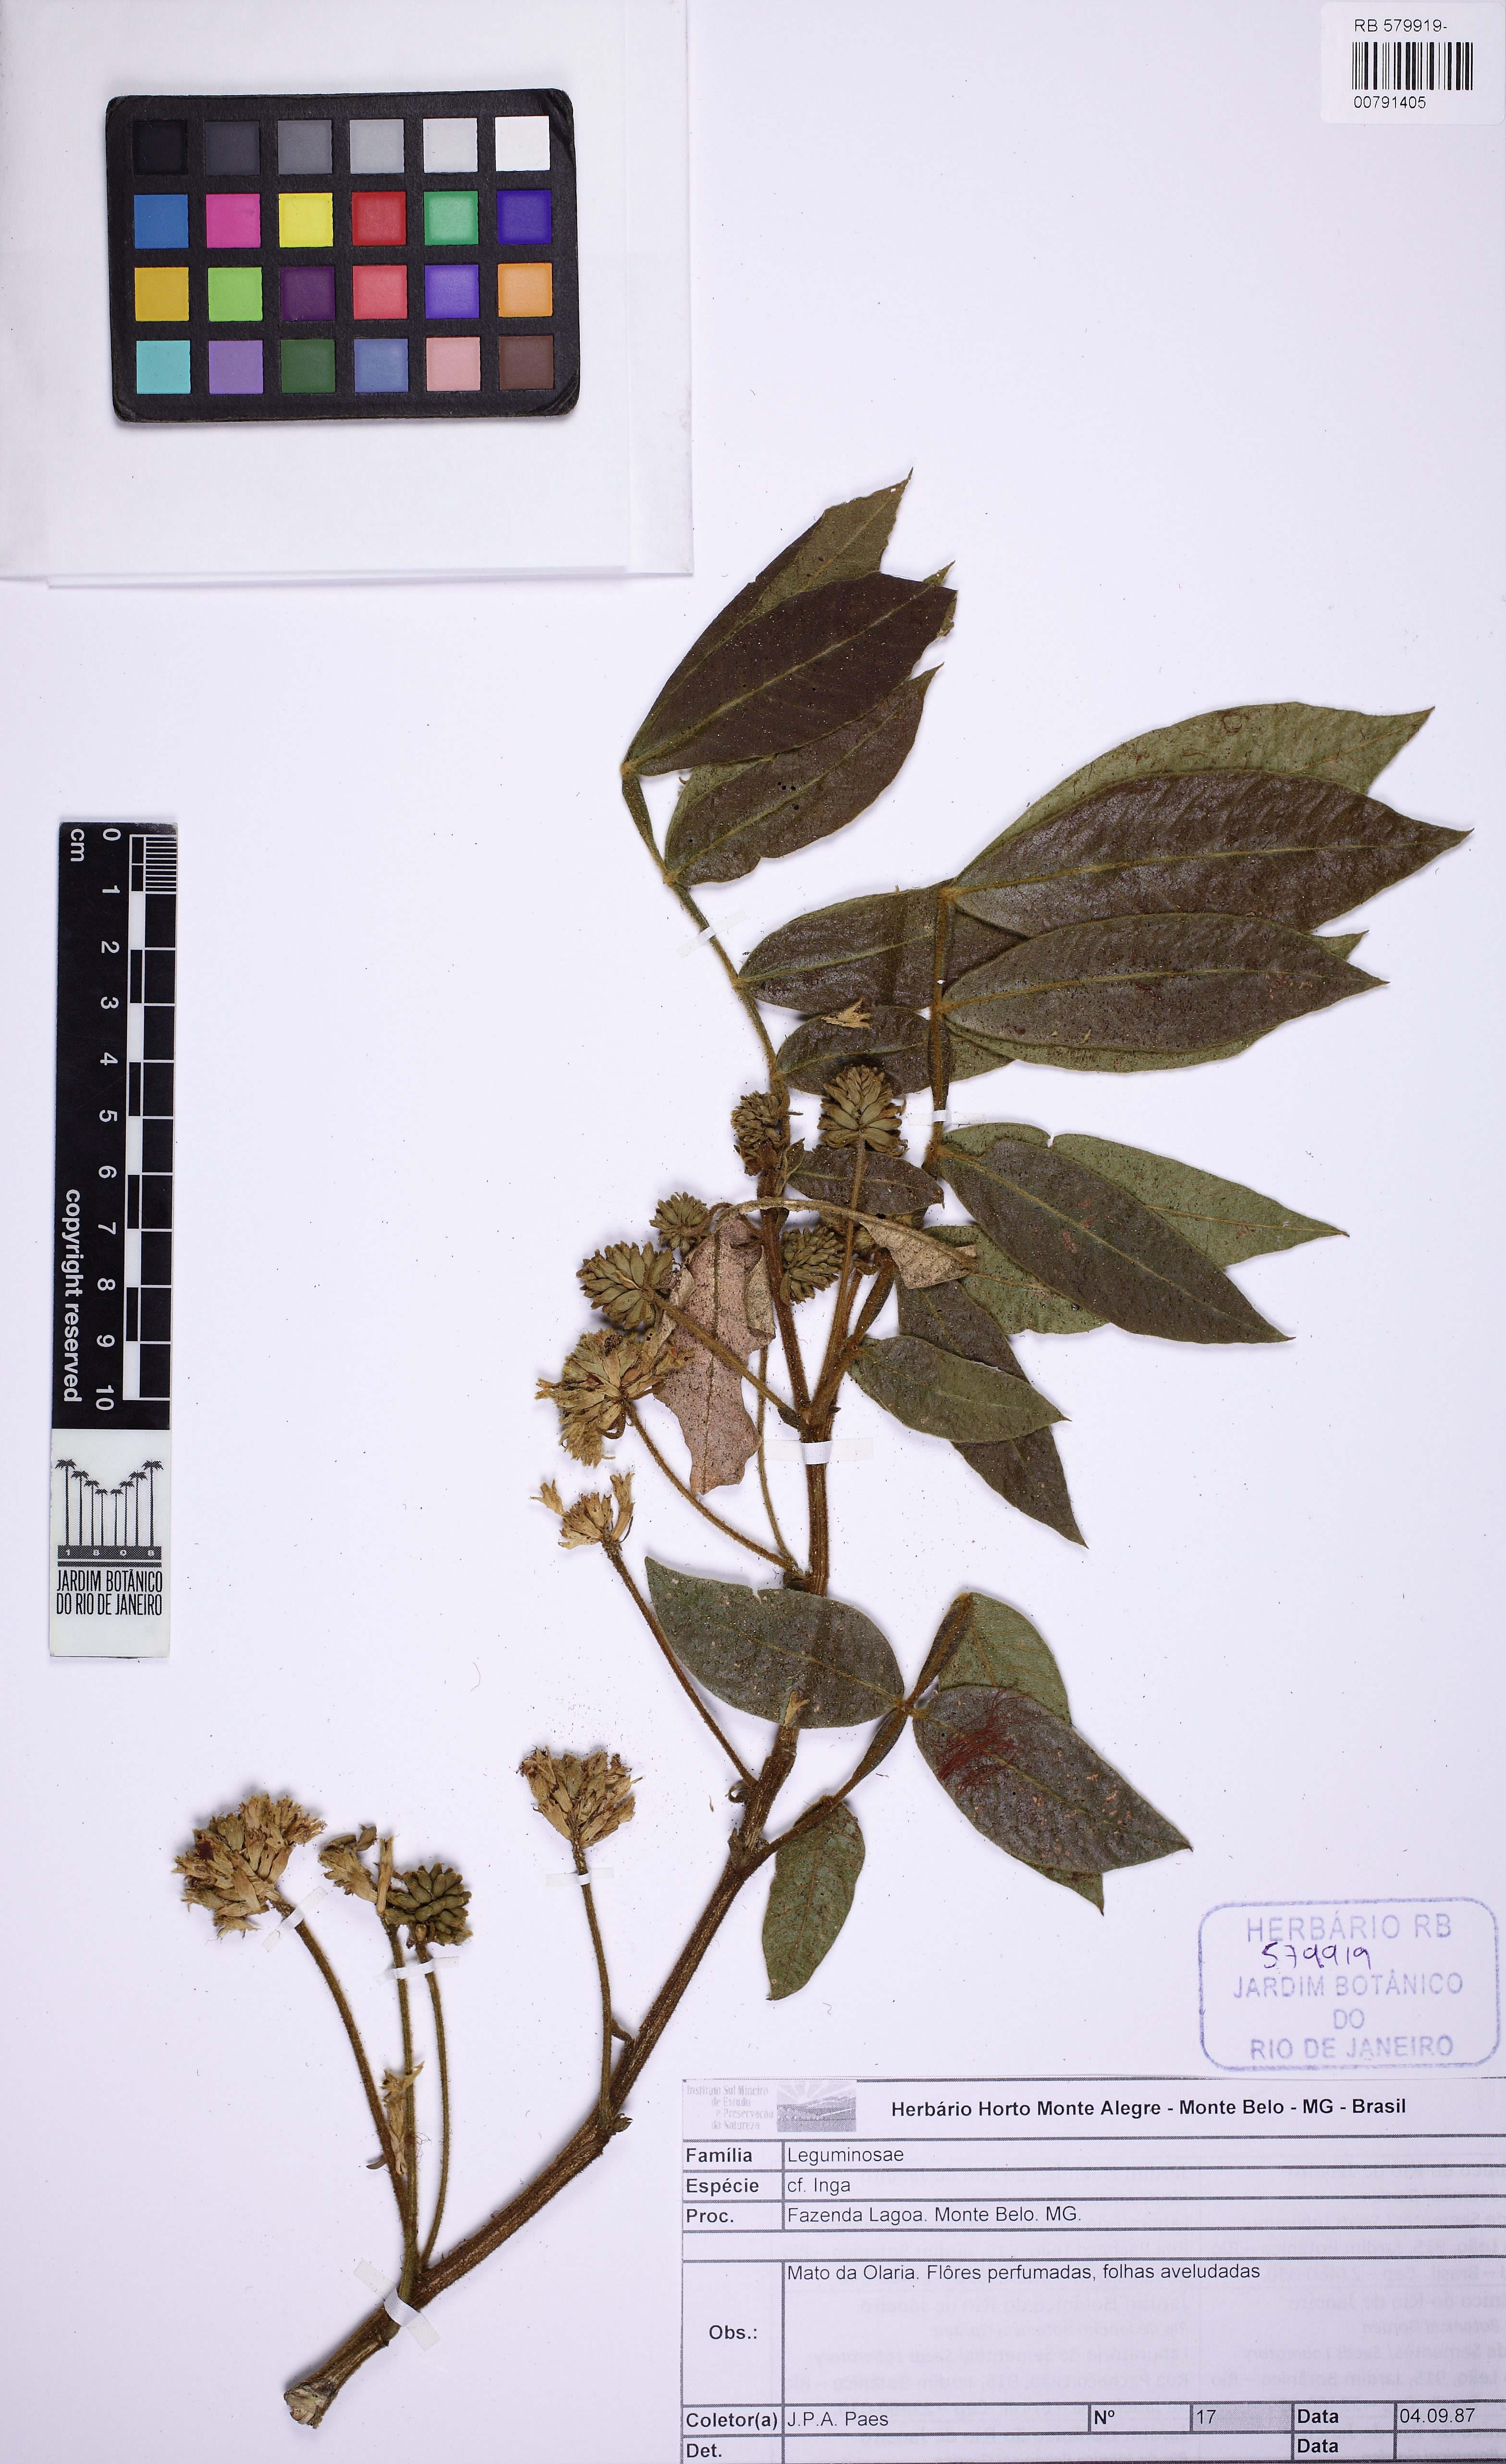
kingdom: Plantae
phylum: Tracheophyta
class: Magnoliopsida
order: Fabales
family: Fabaceae
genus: Inga
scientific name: Inga striata
